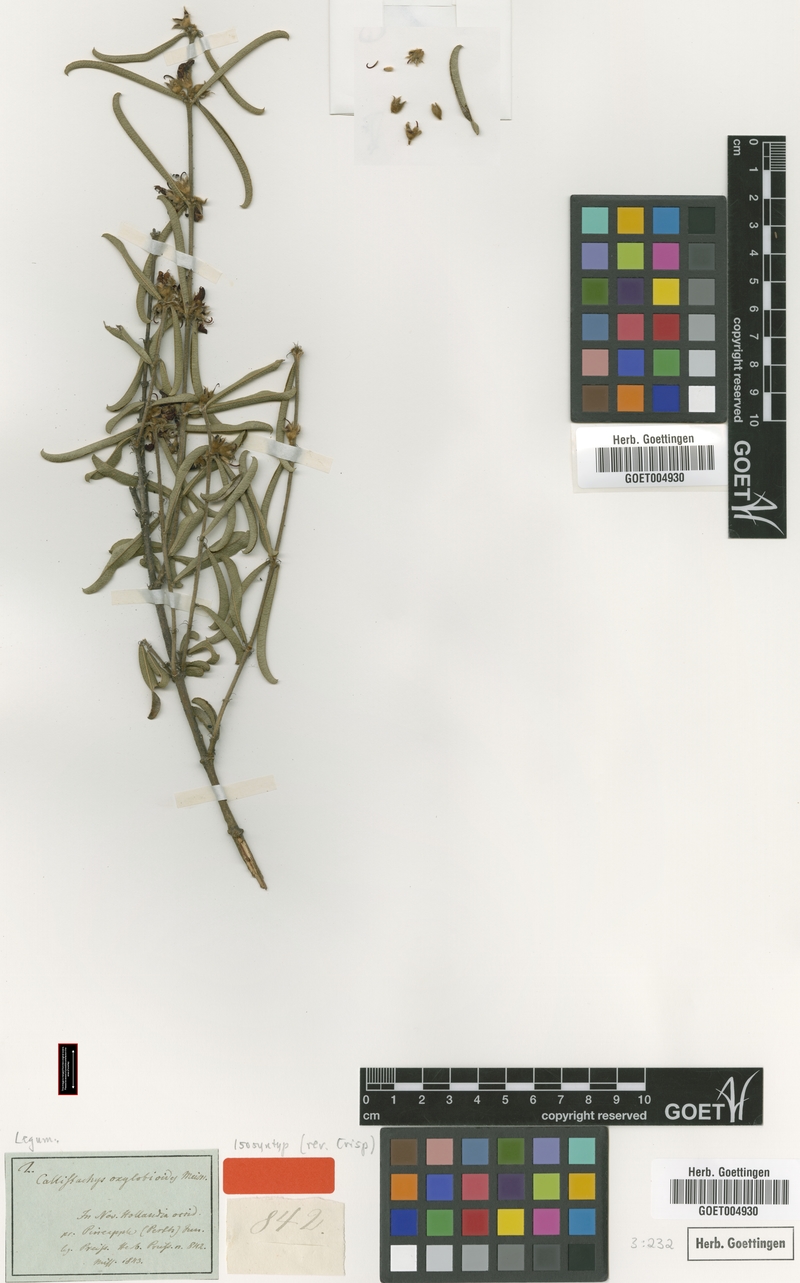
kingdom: Plantae
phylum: Tracheophyta
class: Magnoliopsida
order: Fabales
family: Fabaceae
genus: Gastrolobium
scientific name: Gastrolobium linearifolium
